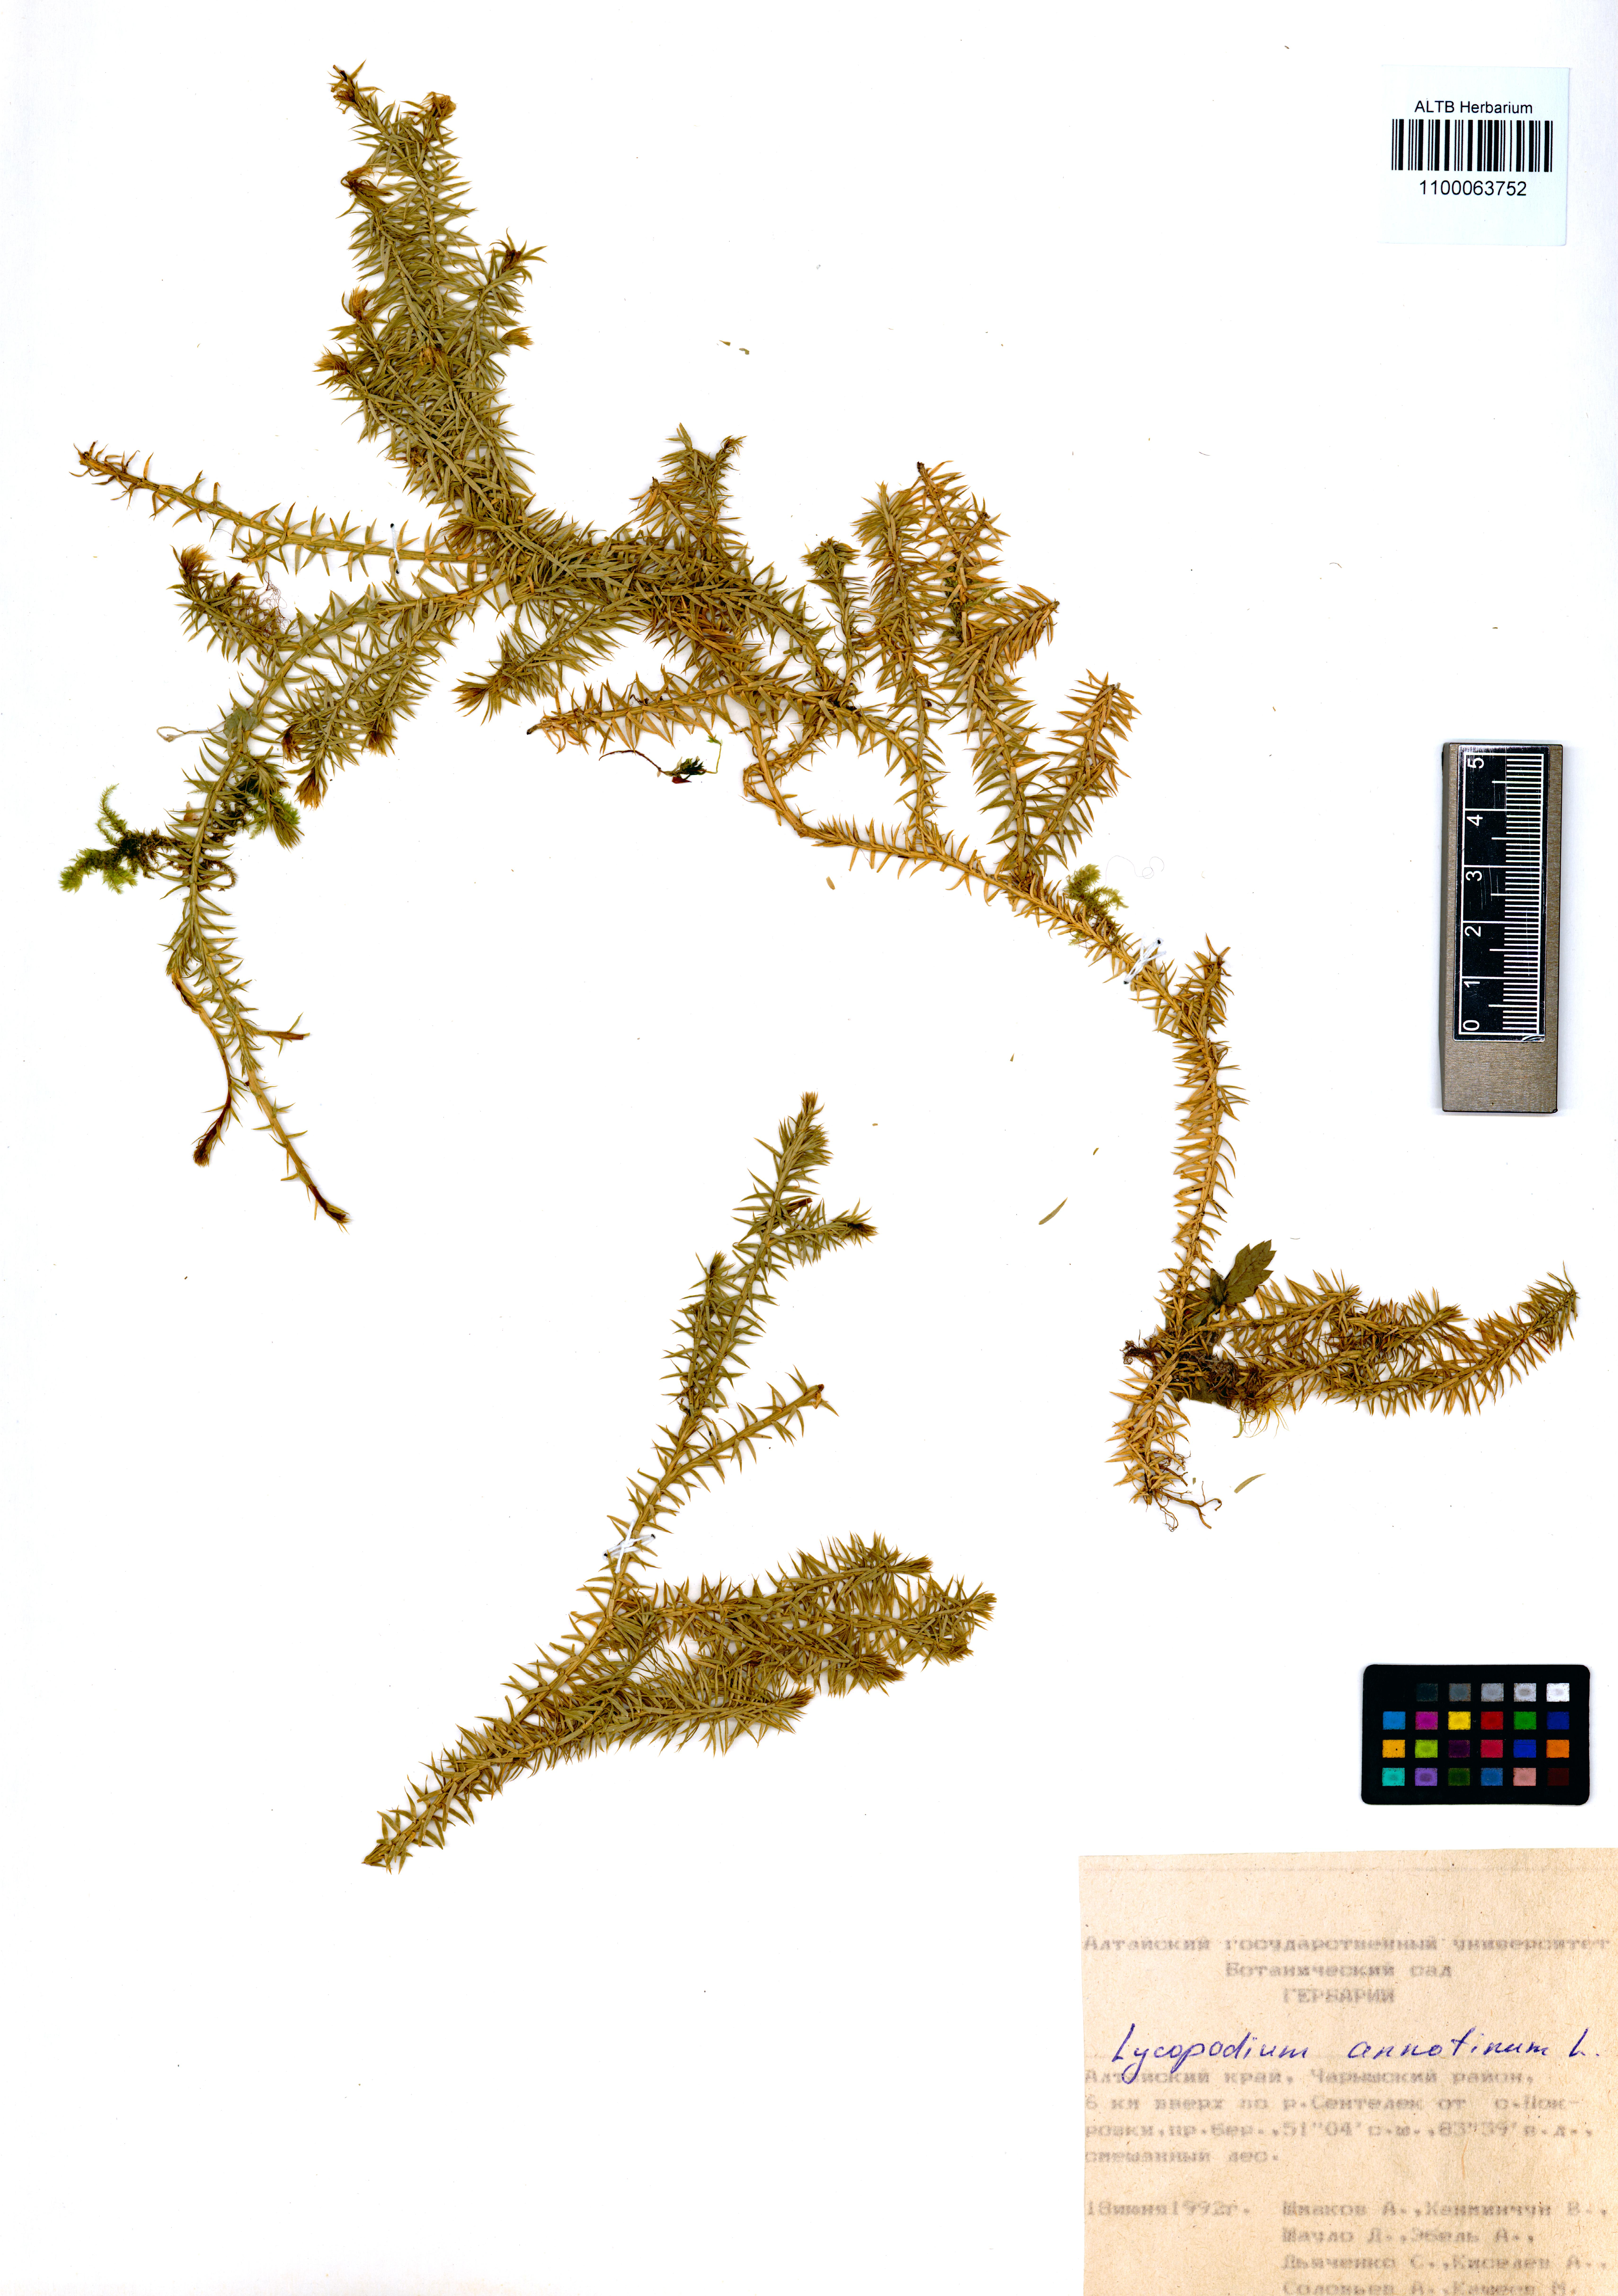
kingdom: Plantae
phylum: Tracheophyta
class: Lycopodiopsida
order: Lycopodiales
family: Lycopodiaceae
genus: Spinulum
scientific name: Spinulum annotinum
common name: Interrupted club-moss
